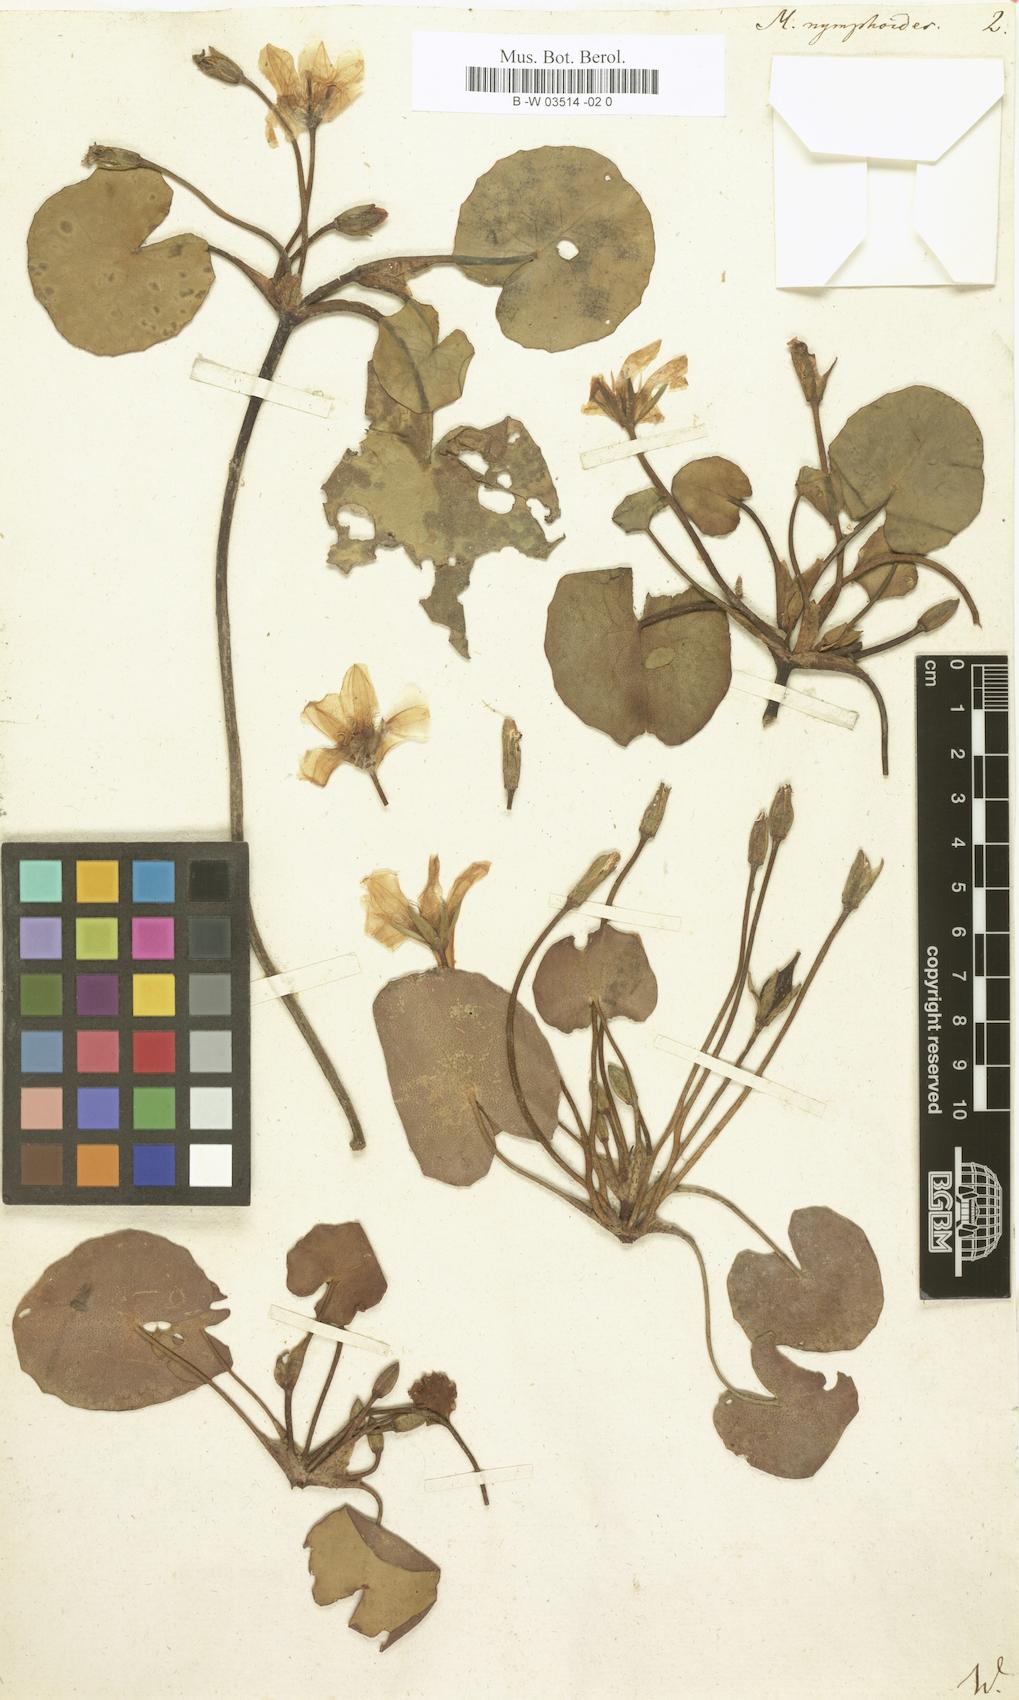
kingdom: Plantae
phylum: Tracheophyta
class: Magnoliopsida
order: Asterales
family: Menyanthaceae
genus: Nymphoides
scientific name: Nymphoides peltata
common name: Fringed water-lily
